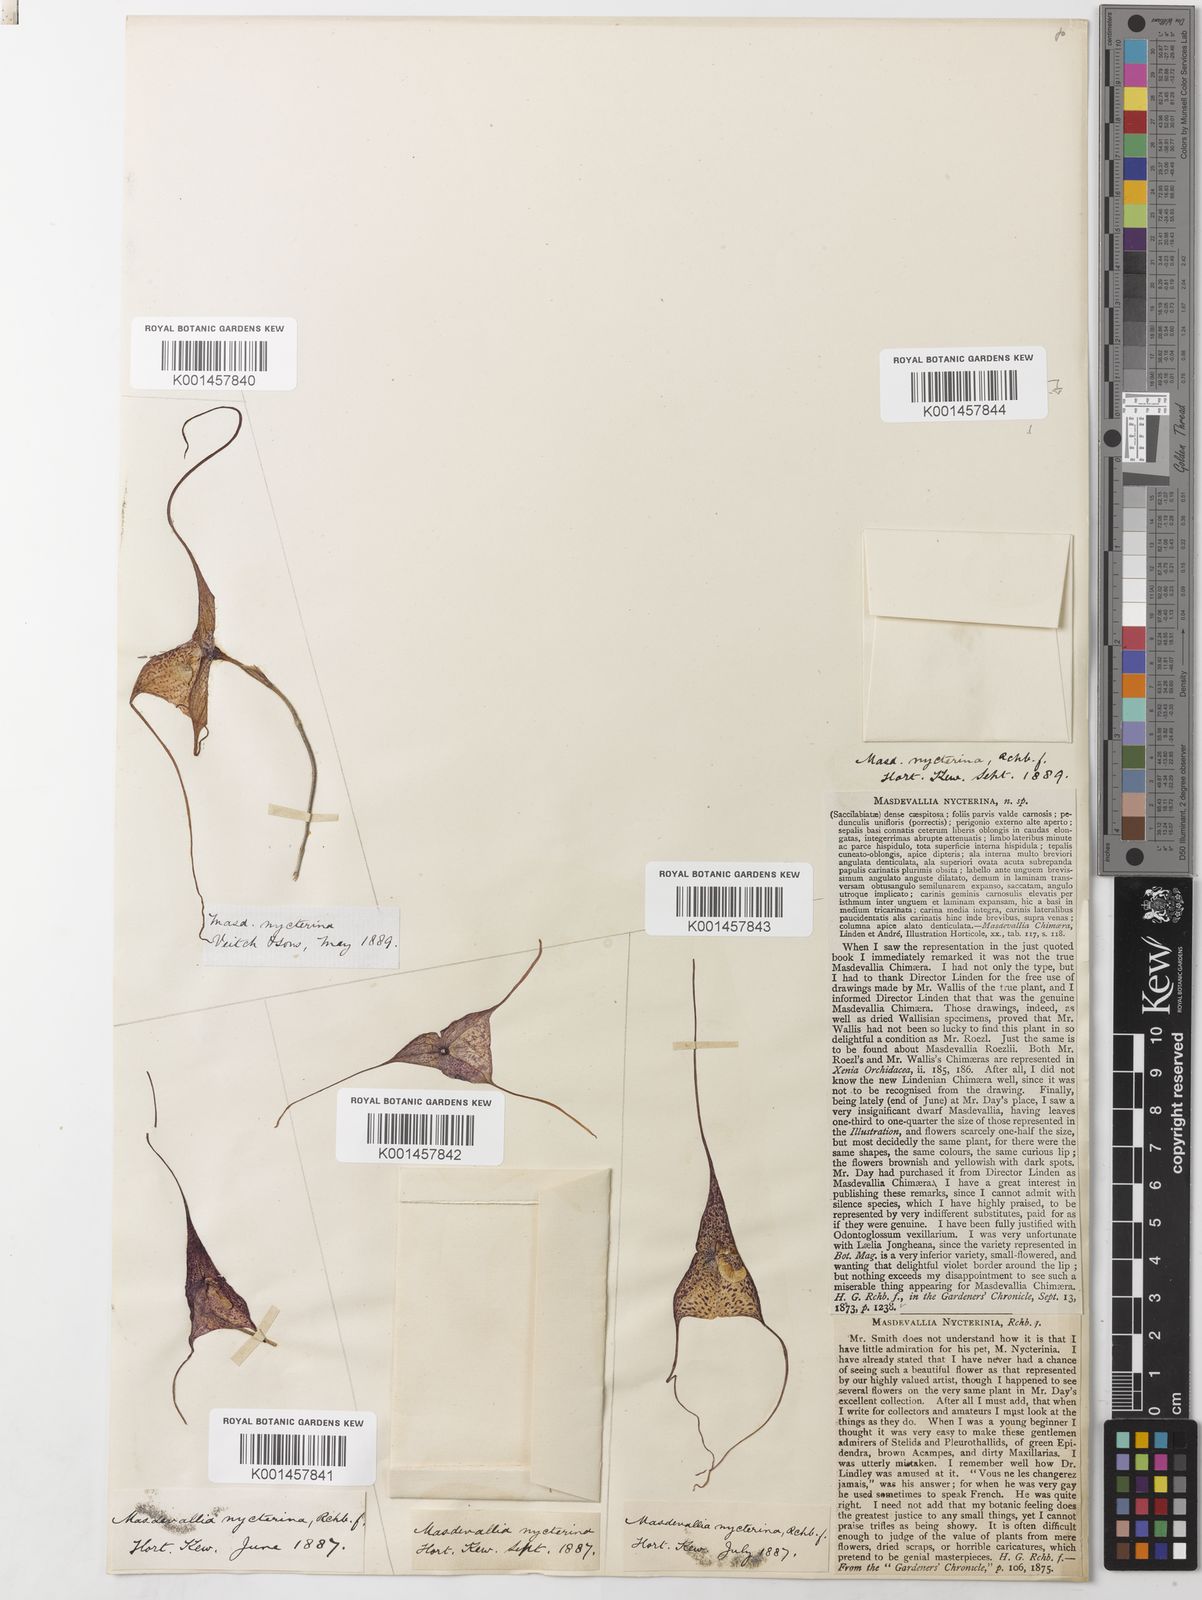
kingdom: Plantae
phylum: Tracheophyta
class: Liliopsida
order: Asparagales
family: Orchidaceae
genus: Dracula
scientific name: Dracula nycterina
